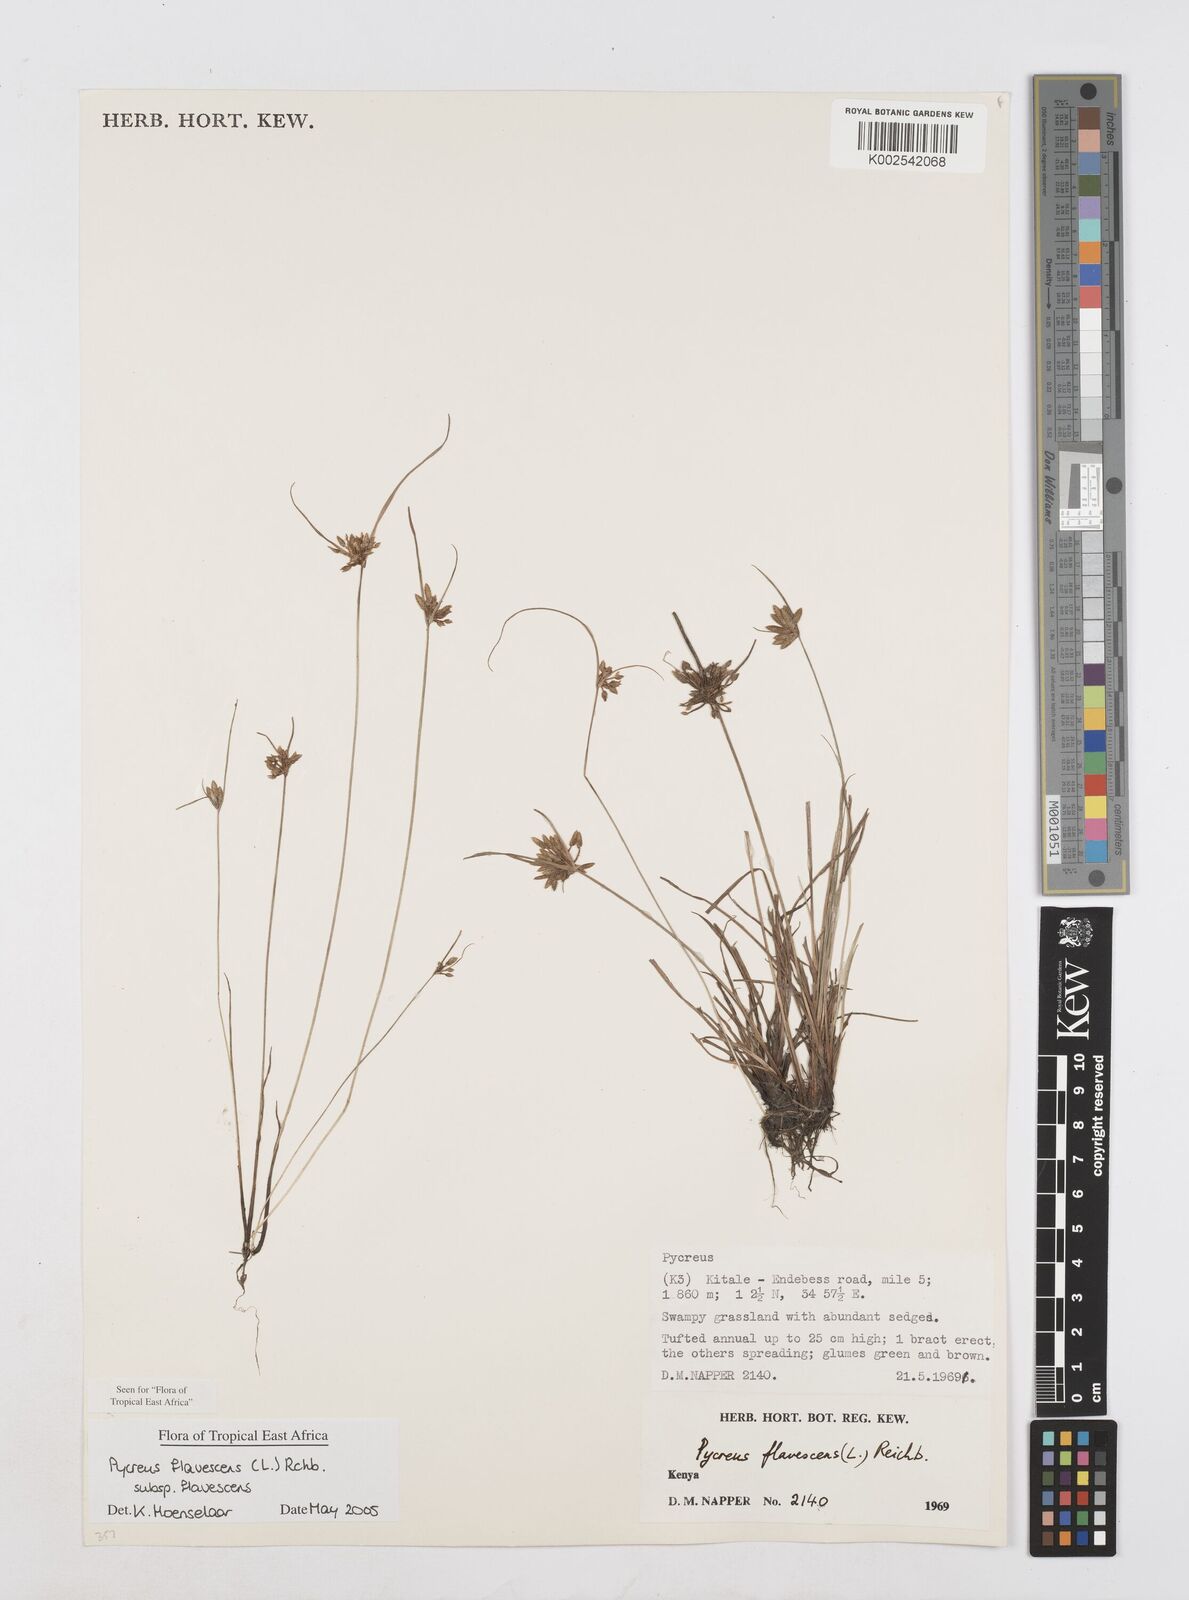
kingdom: Plantae
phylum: Tracheophyta
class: Liliopsida
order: Poales
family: Cyperaceae
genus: Cyperus
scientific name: Cyperus flavescens
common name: Yellow galingale
